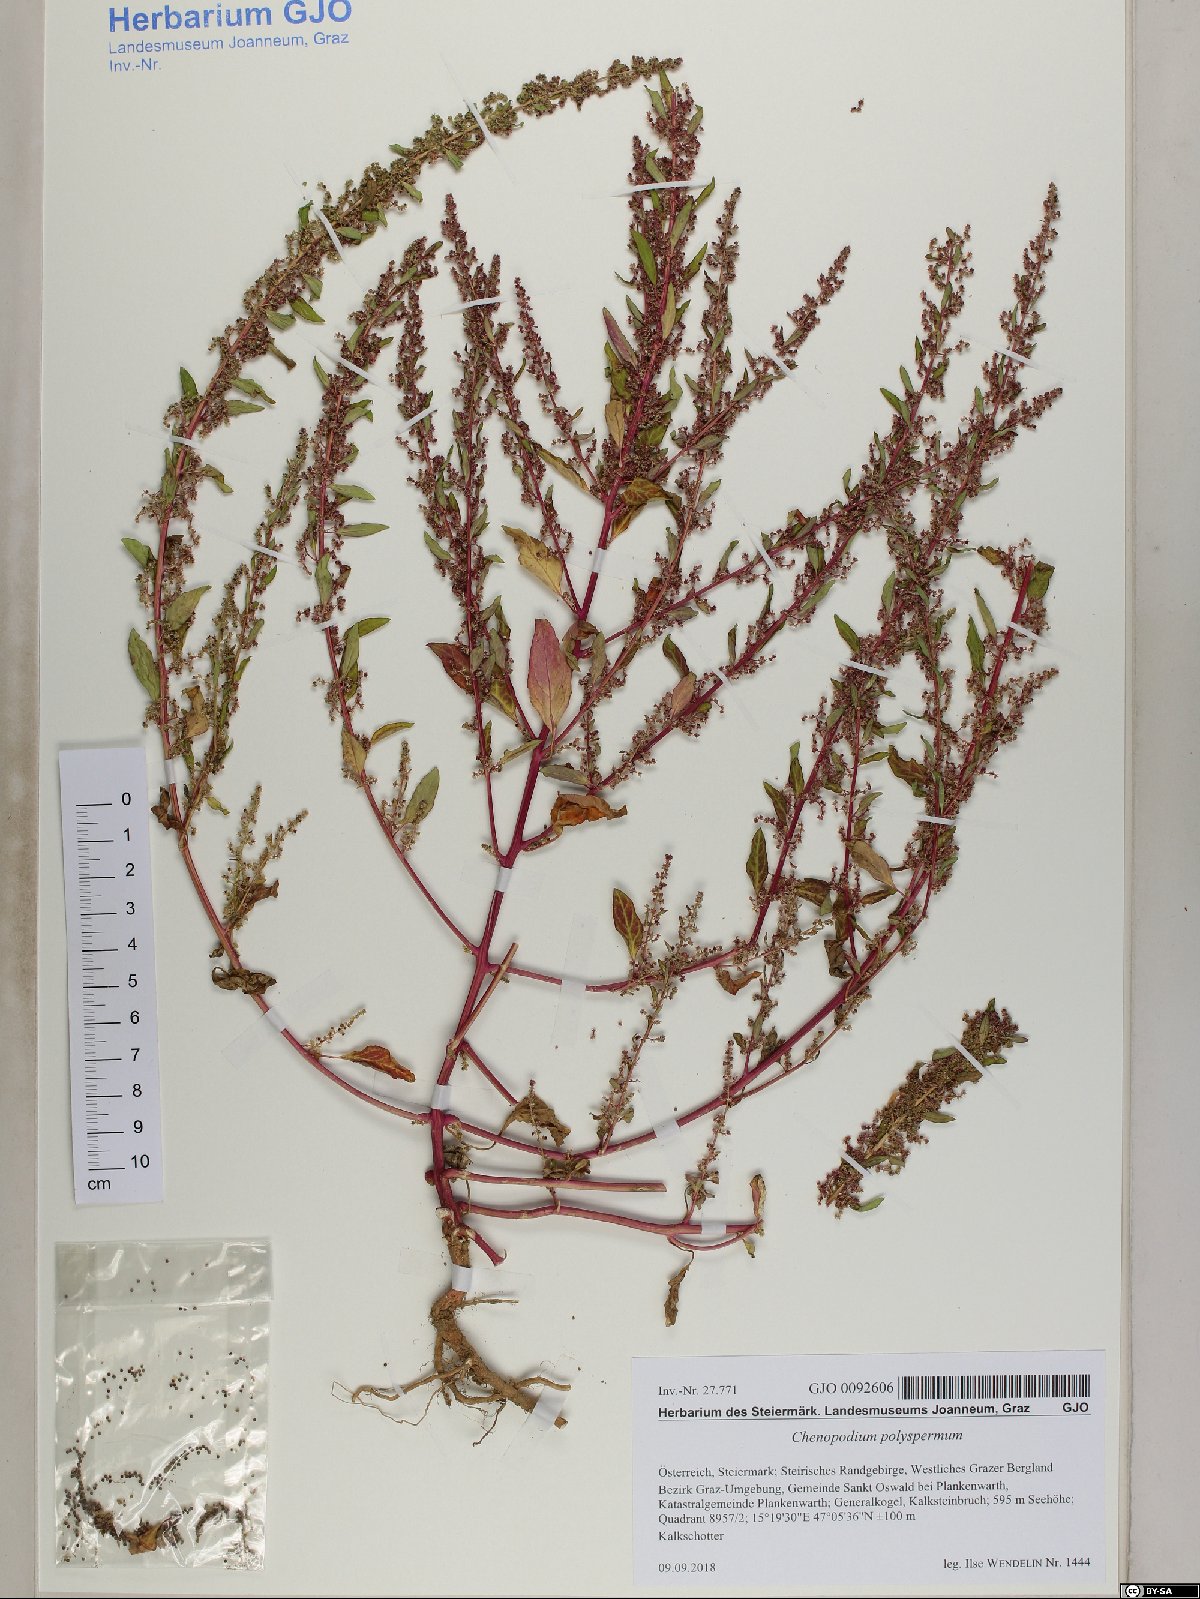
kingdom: Plantae
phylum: Tracheophyta
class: Magnoliopsida
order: Caryophyllales
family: Amaranthaceae
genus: Lipandra
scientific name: Lipandra polysperma
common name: Many-seed goosefoot
